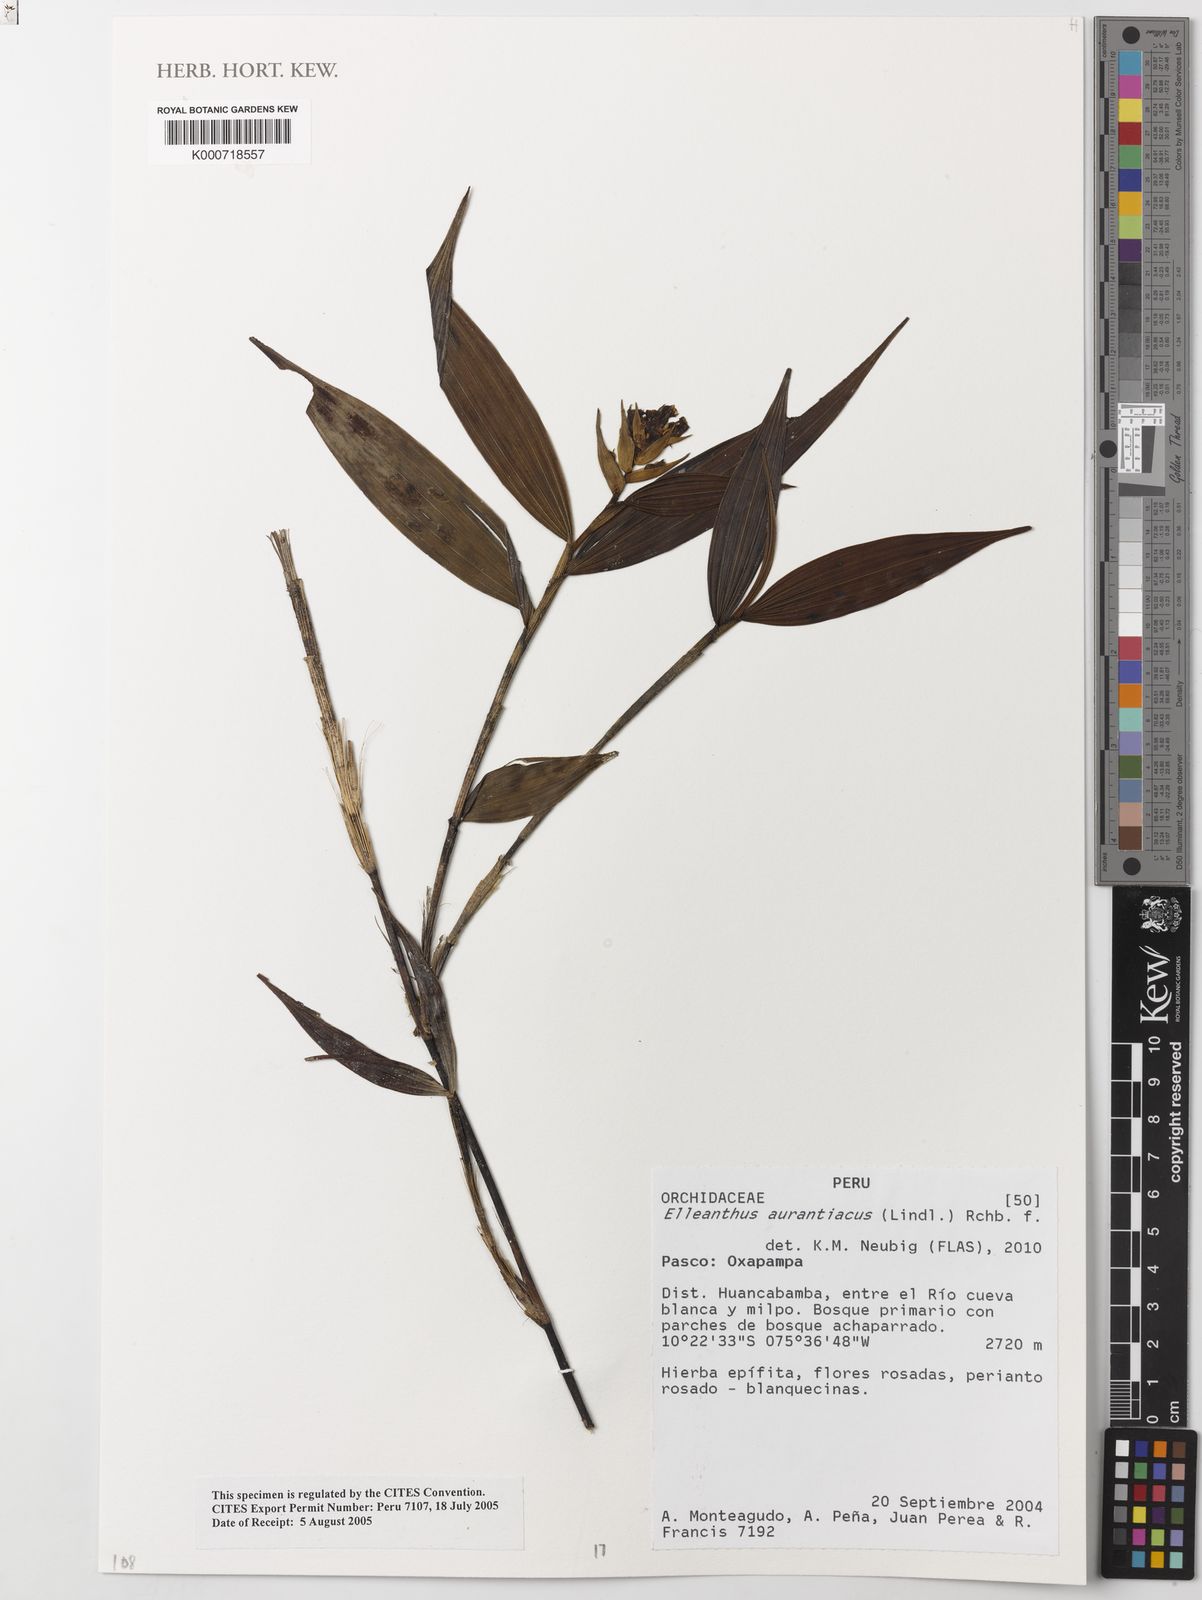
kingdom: Plantae
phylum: Tracheophyta
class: Liliopsida
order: Asparagales
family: Orchidaceae
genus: Elleanthus
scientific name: Elleanthus aurantiacus
